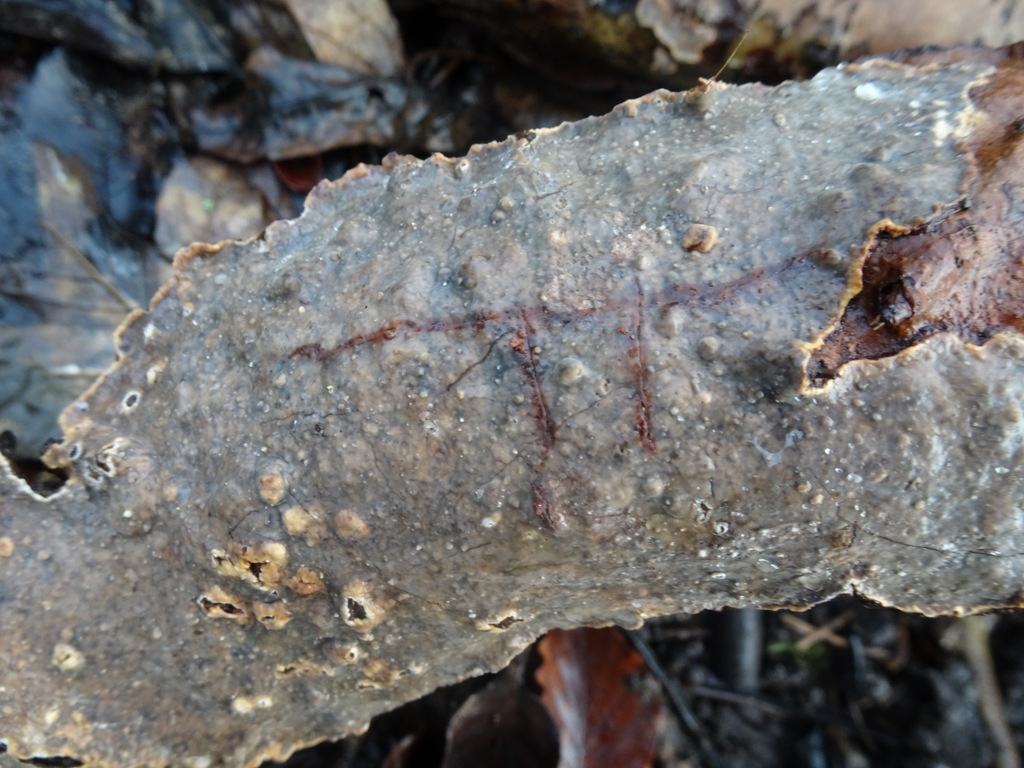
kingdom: Fungi
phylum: Basidiomycota
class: Agaricomycetes
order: Russulales
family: Stereaceae
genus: Stereum
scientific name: Stereum rugosum
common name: rynket lædersvamp
